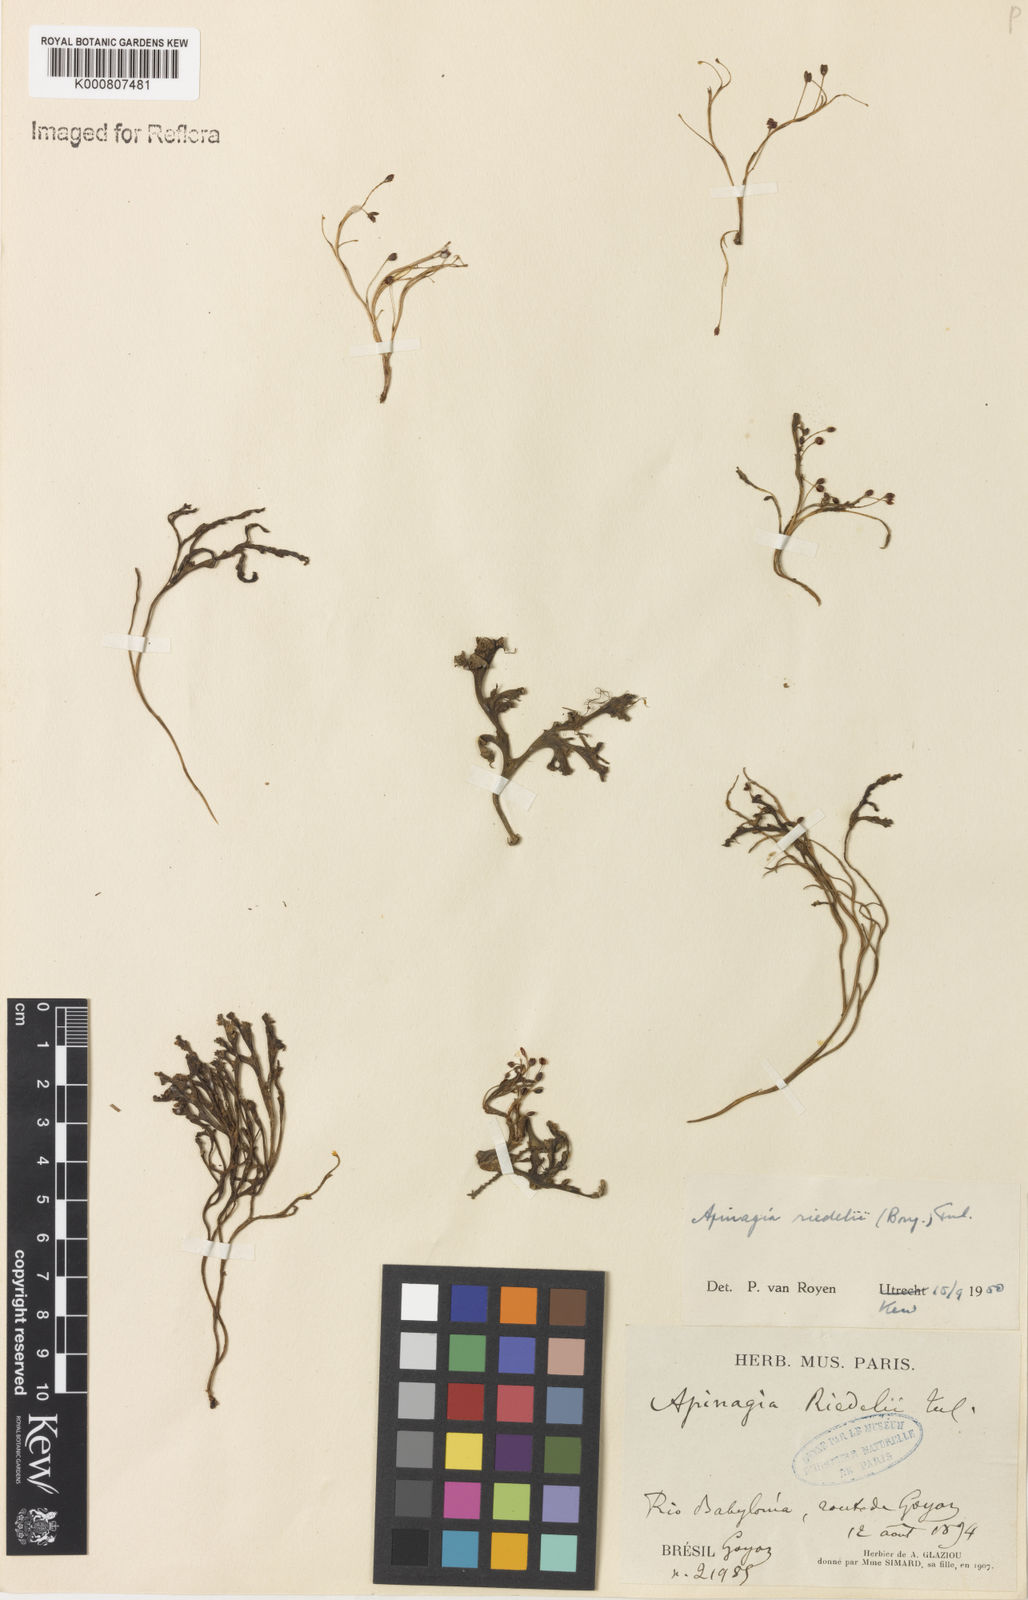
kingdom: Plantae
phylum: Tracheophyta
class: Magnoliopsida
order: Malpighiales
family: Podostemaceae
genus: Apinagia
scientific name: Apinagia riedelii
